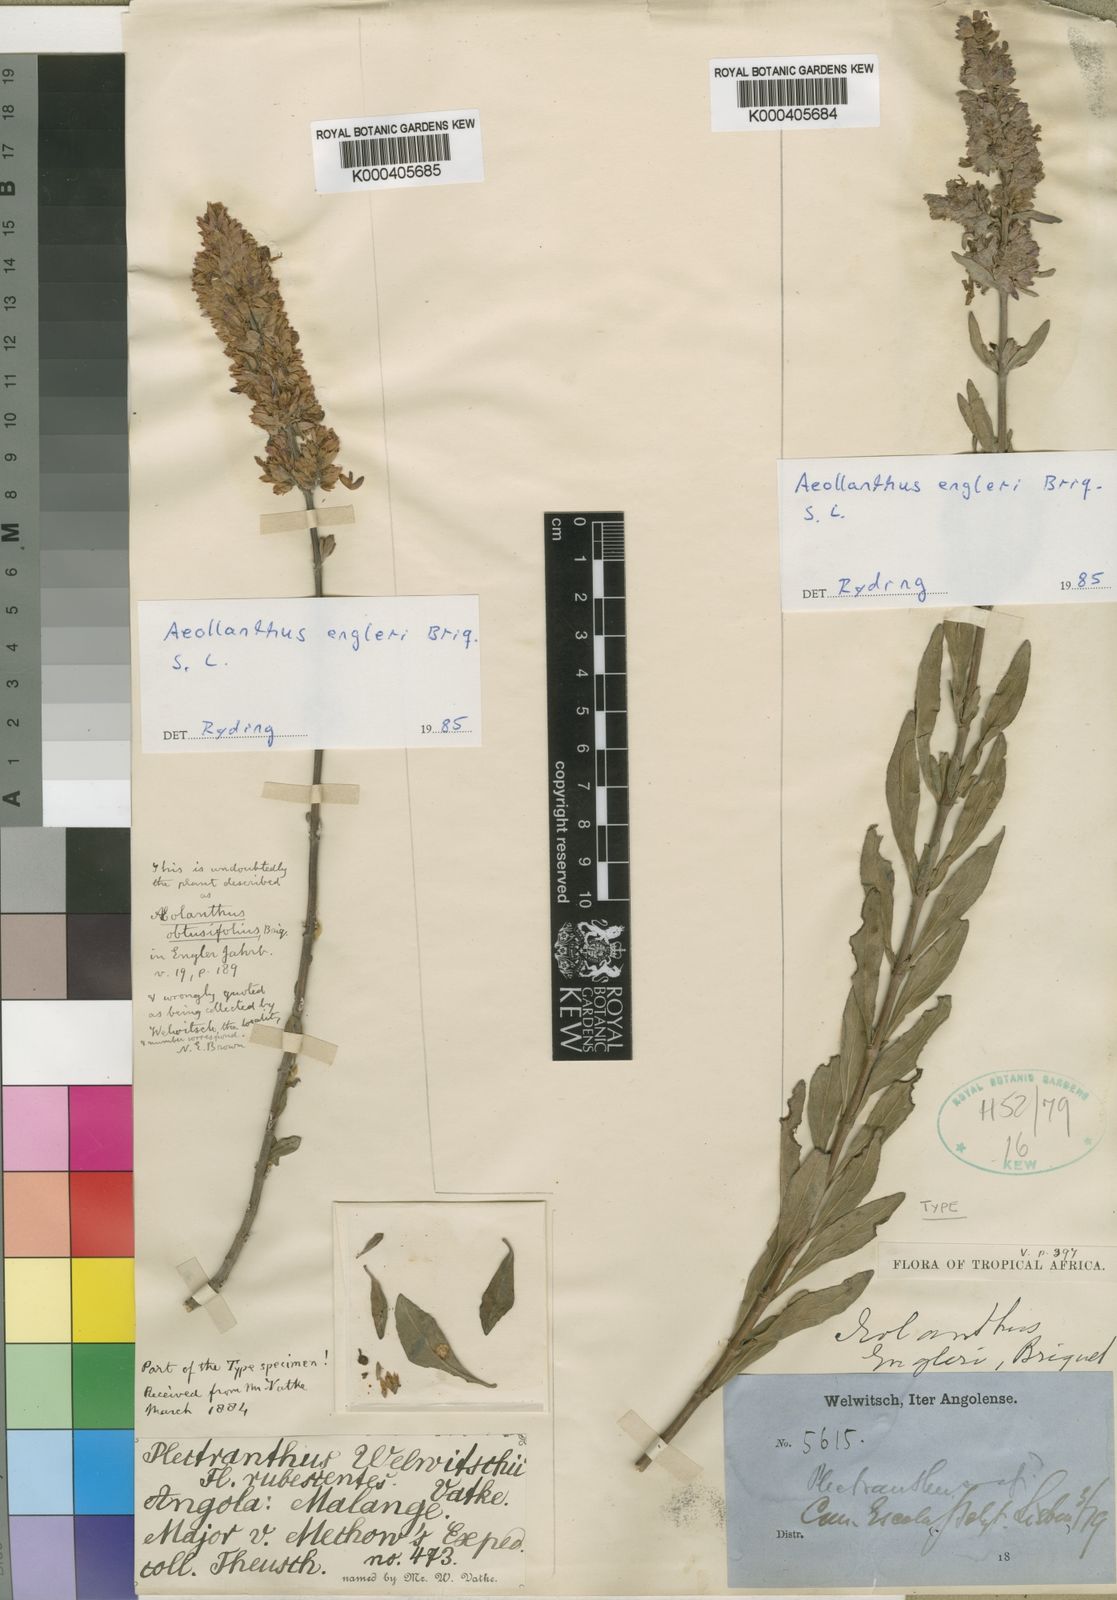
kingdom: Plantae
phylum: Tracheophyta
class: Magnoliopsida
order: Lamiales
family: Lamiaceae
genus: Aeollanthus
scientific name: Aeollanthus engleri
